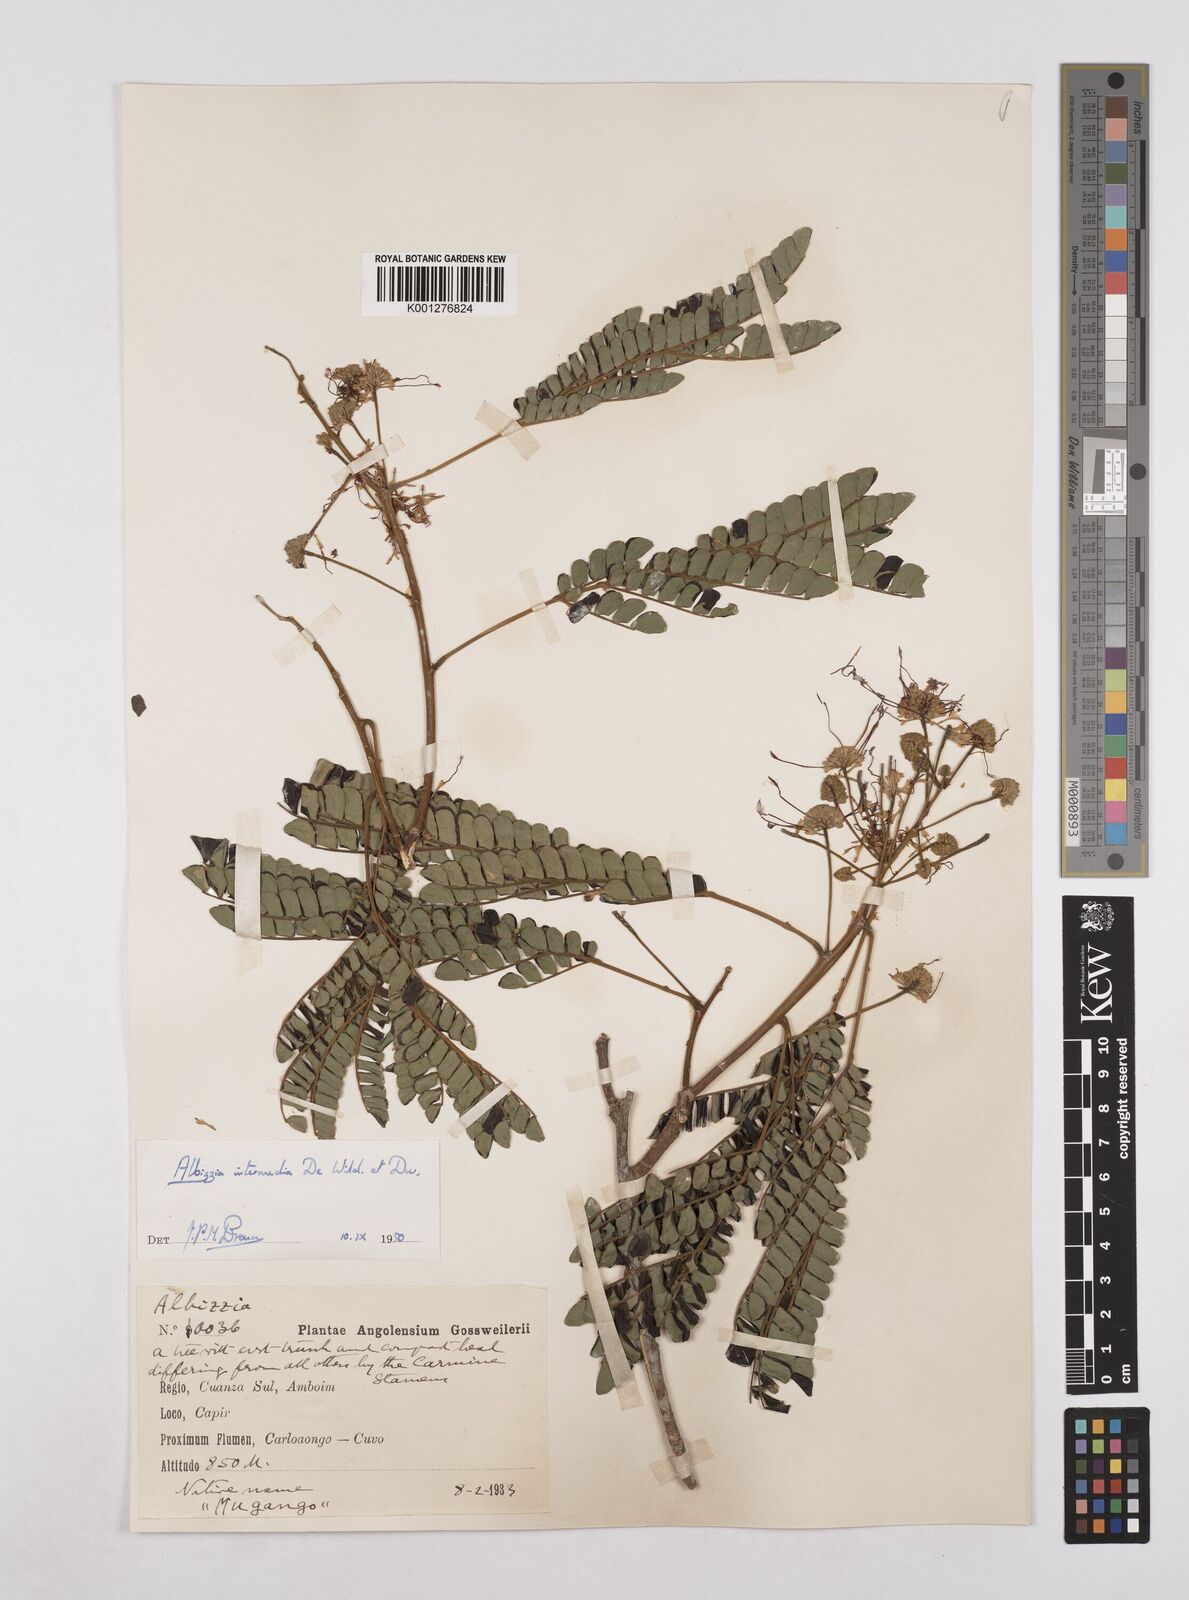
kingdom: Plantae
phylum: Tracheophyta
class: Magnoliopsida
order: Fabales
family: Fabaceae
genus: Albizia
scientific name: Albizia
